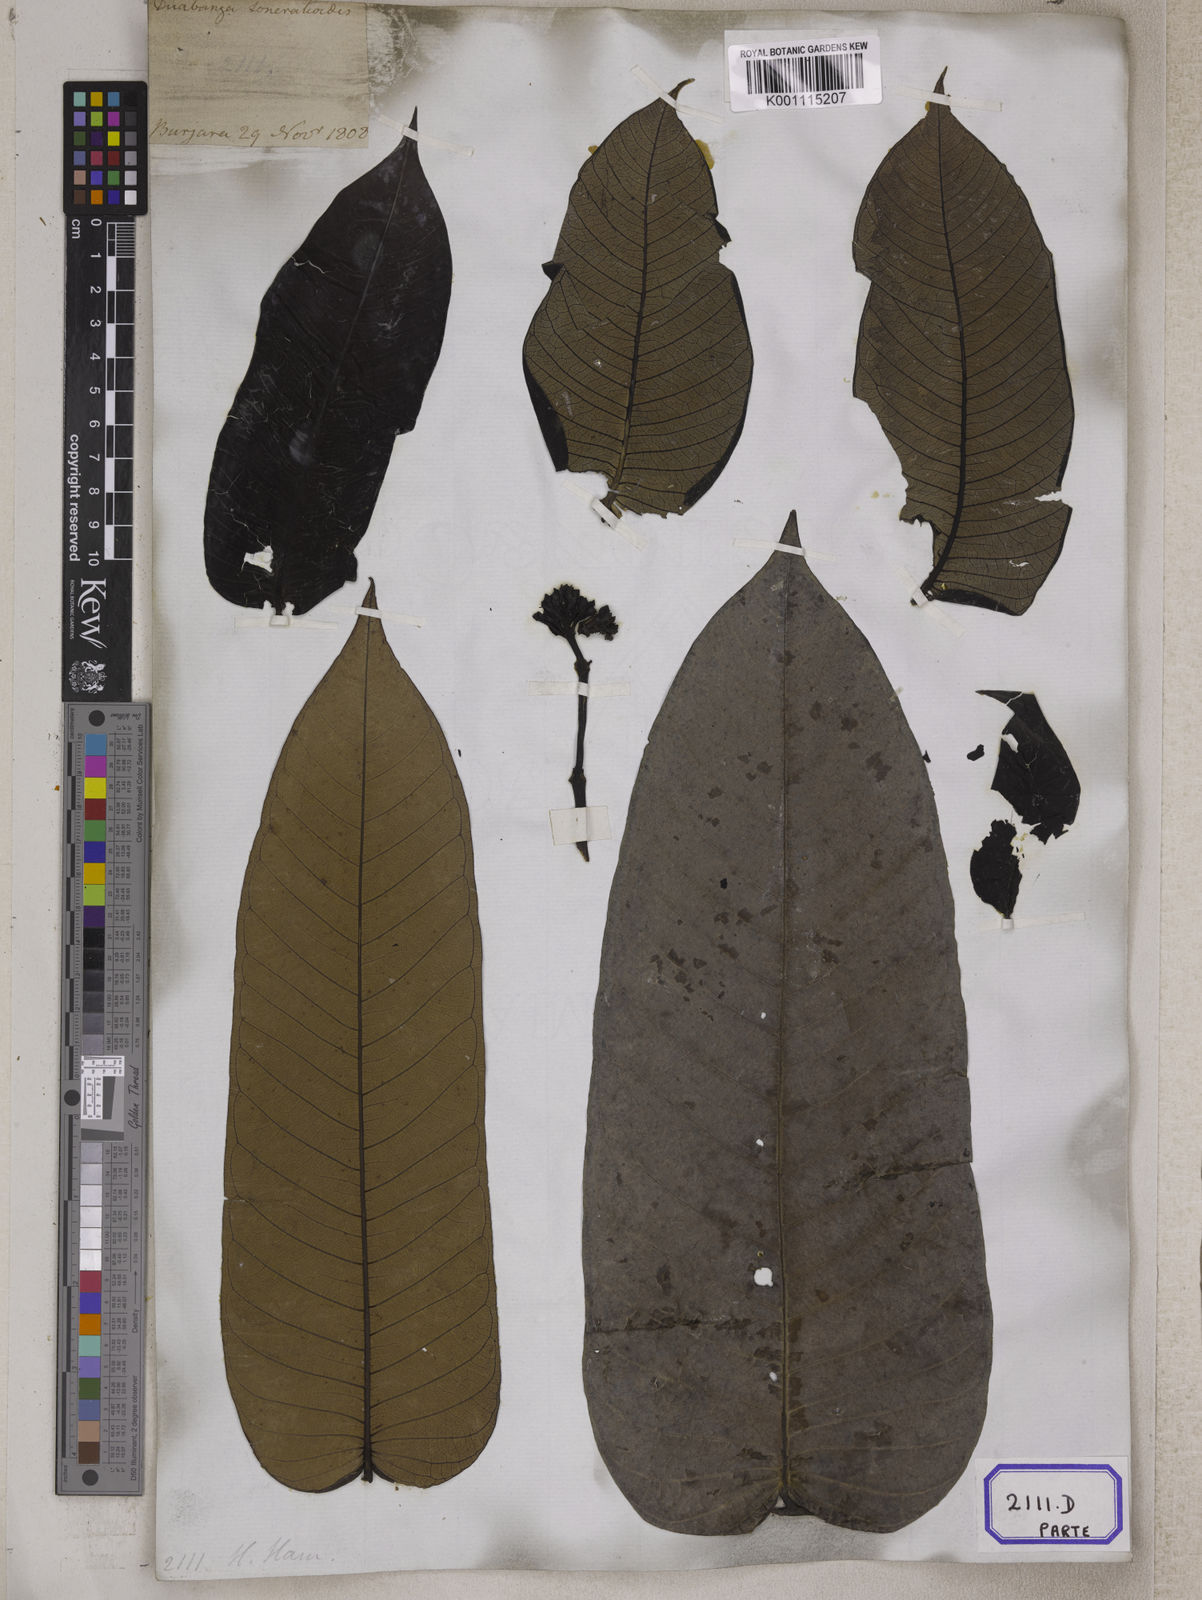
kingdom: Plantae
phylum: Tracheophyta
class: Magnoliopsida
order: Myrtales
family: Lythraceae
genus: Lagerstroemia
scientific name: Lagerstroemia
